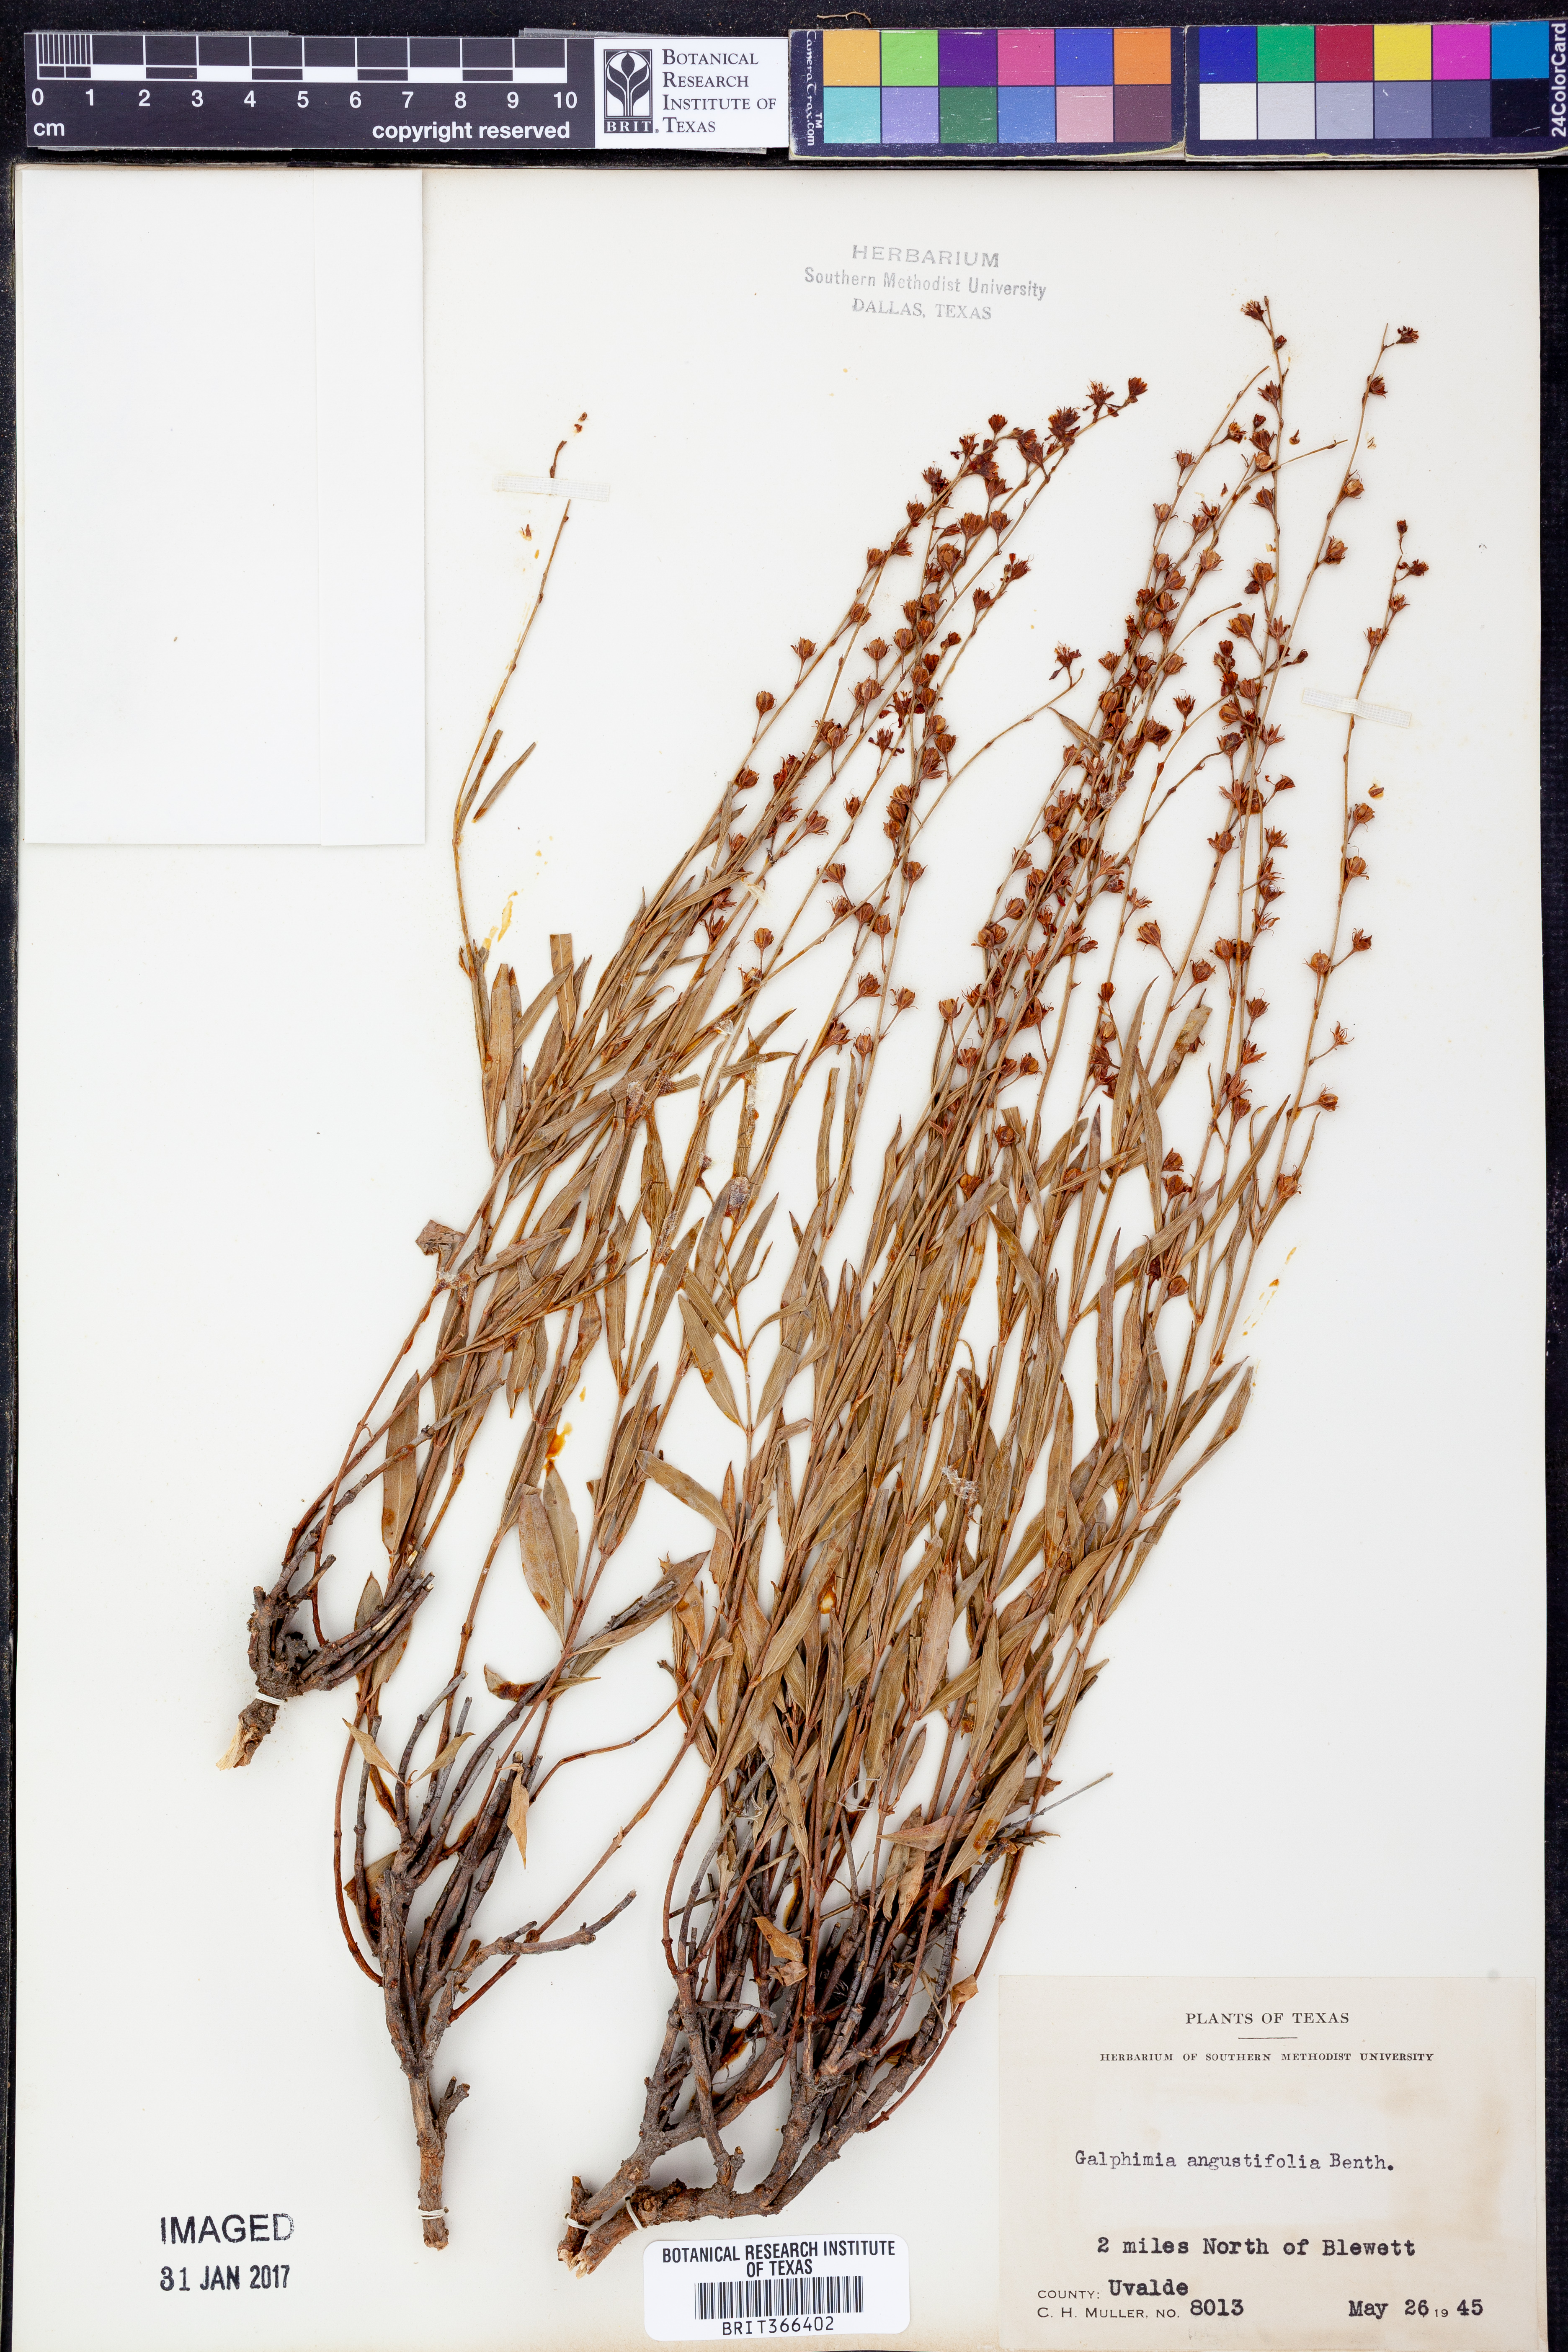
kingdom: Plantae
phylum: Tracheophyta
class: Magnoliopsida
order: Malpighiales
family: Malpighiaceae
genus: Galphimia
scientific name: Galphimia angustifolia
